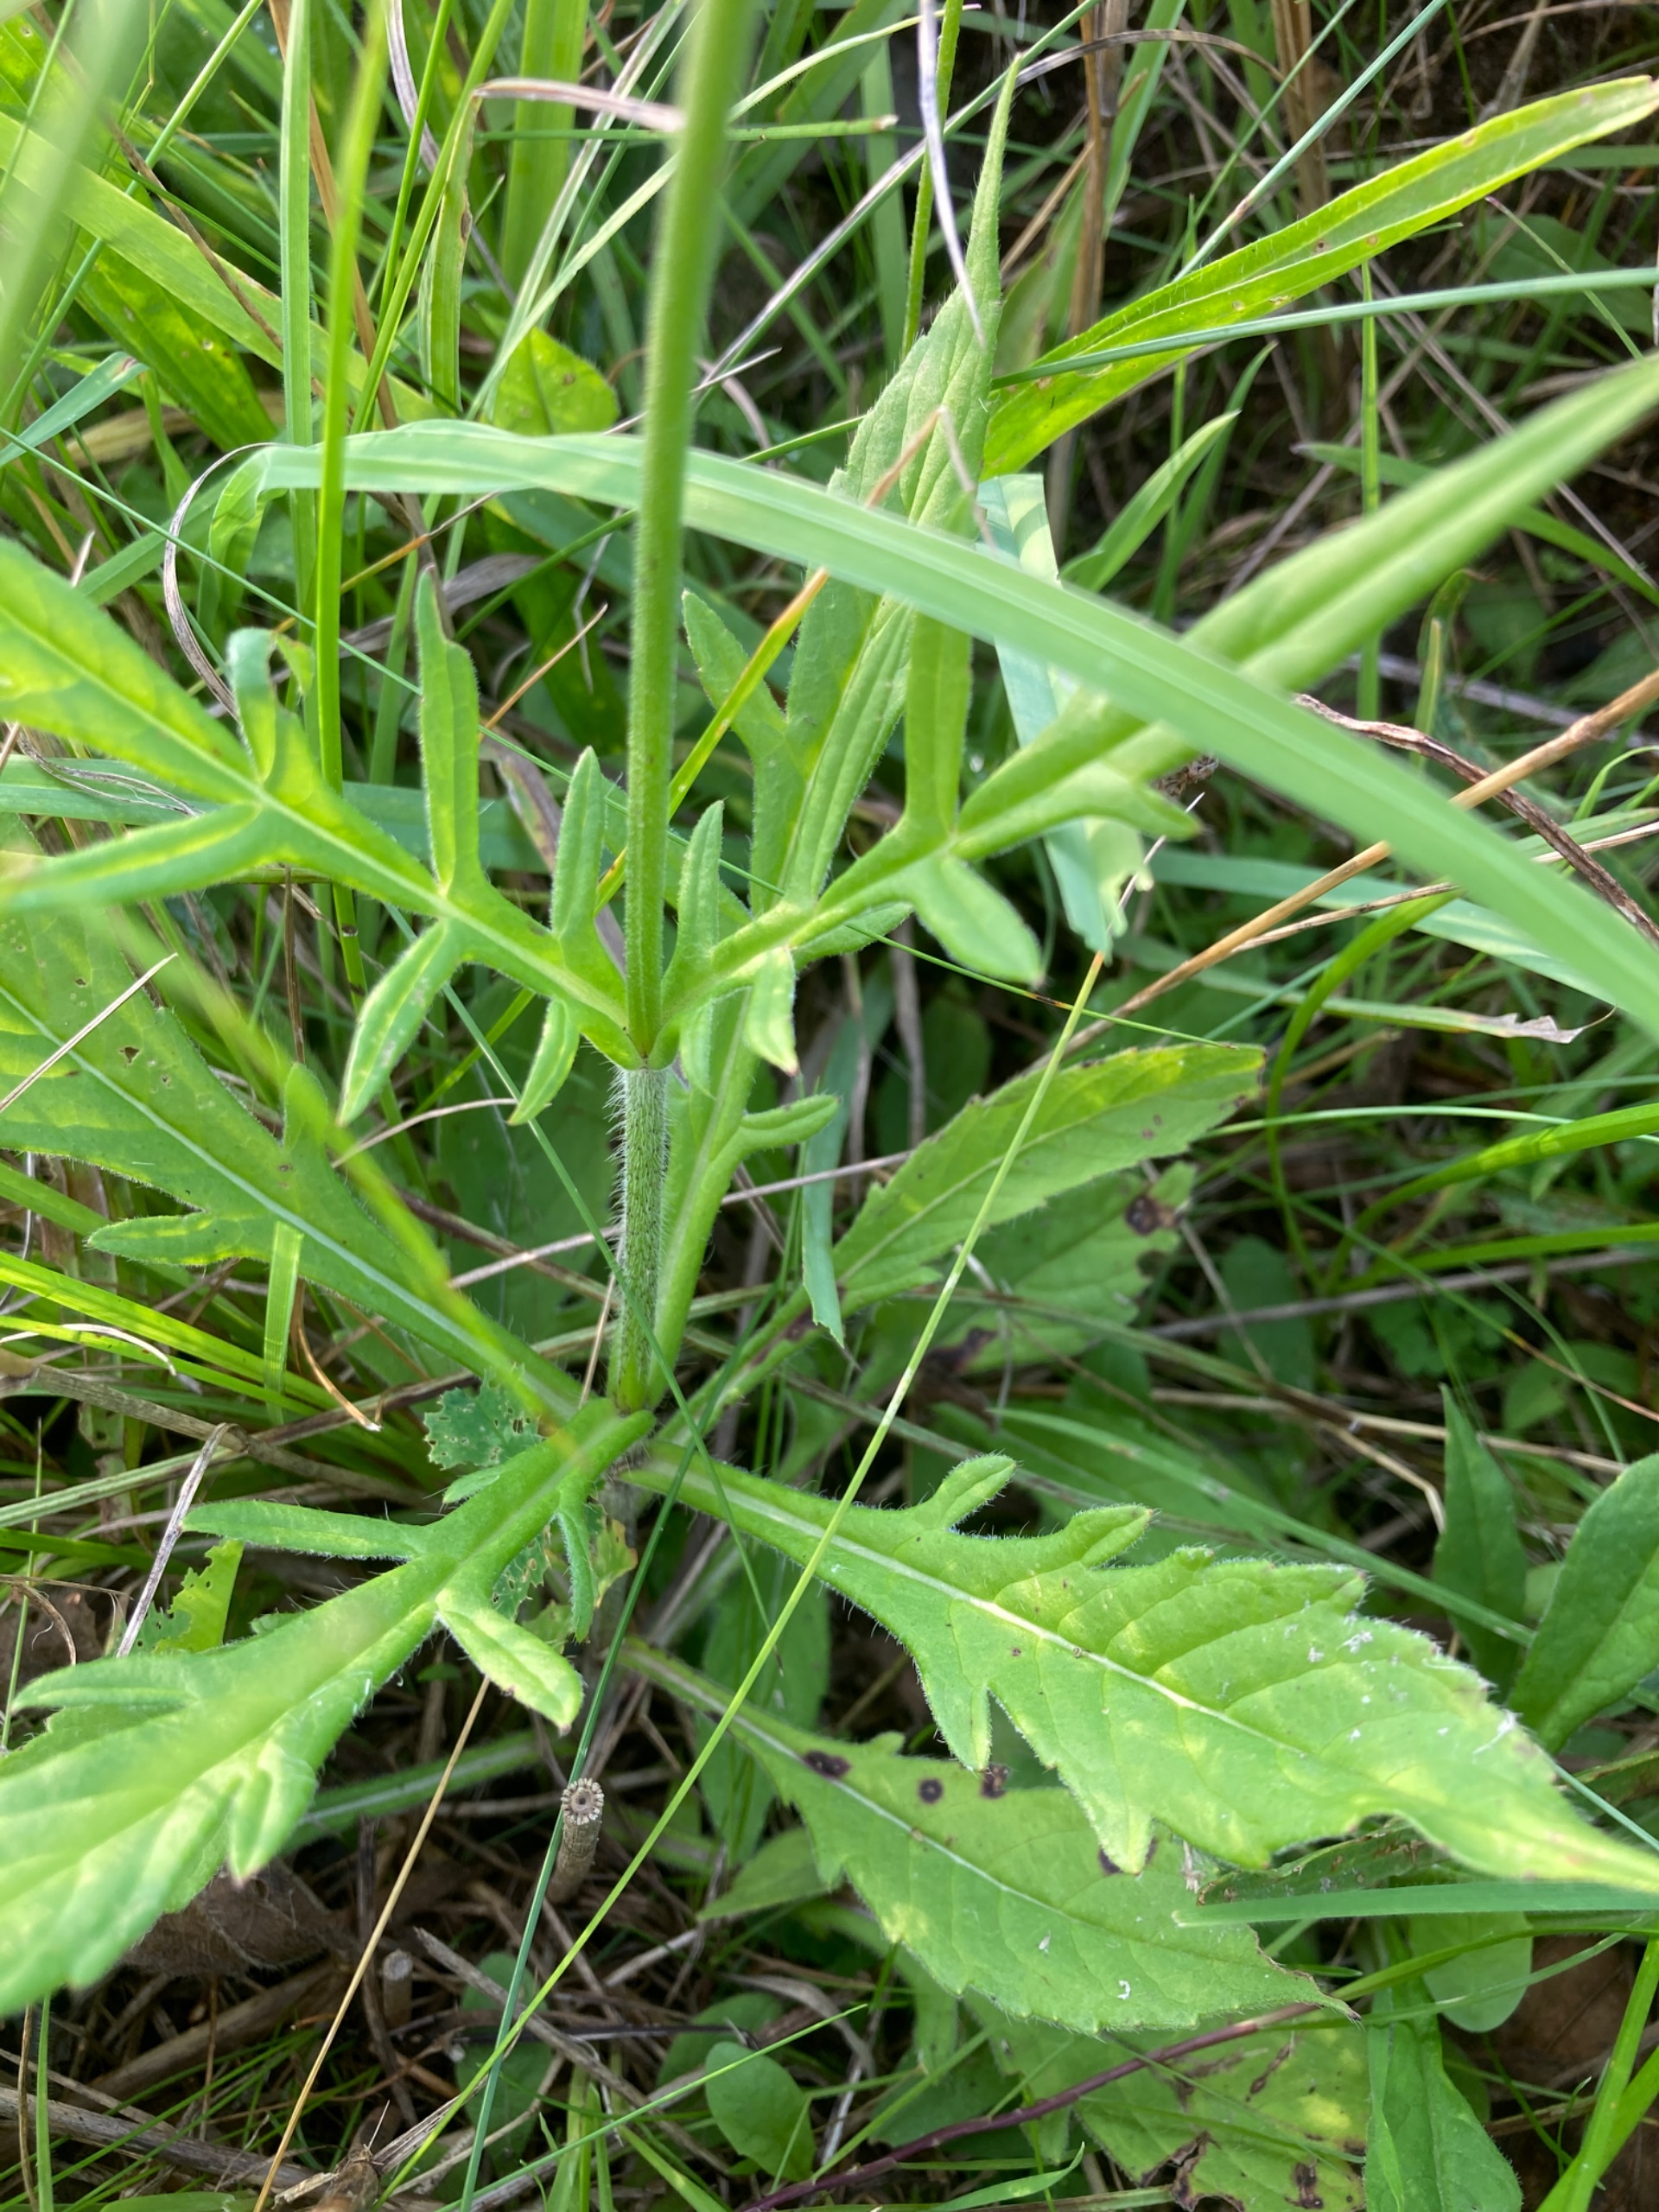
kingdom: Plantae
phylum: Tracheophyta
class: Magnoliopsida
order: Dipsacales
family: Caprifoliaceae
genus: Knautia
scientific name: Knautia arvensis
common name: Blåhat
